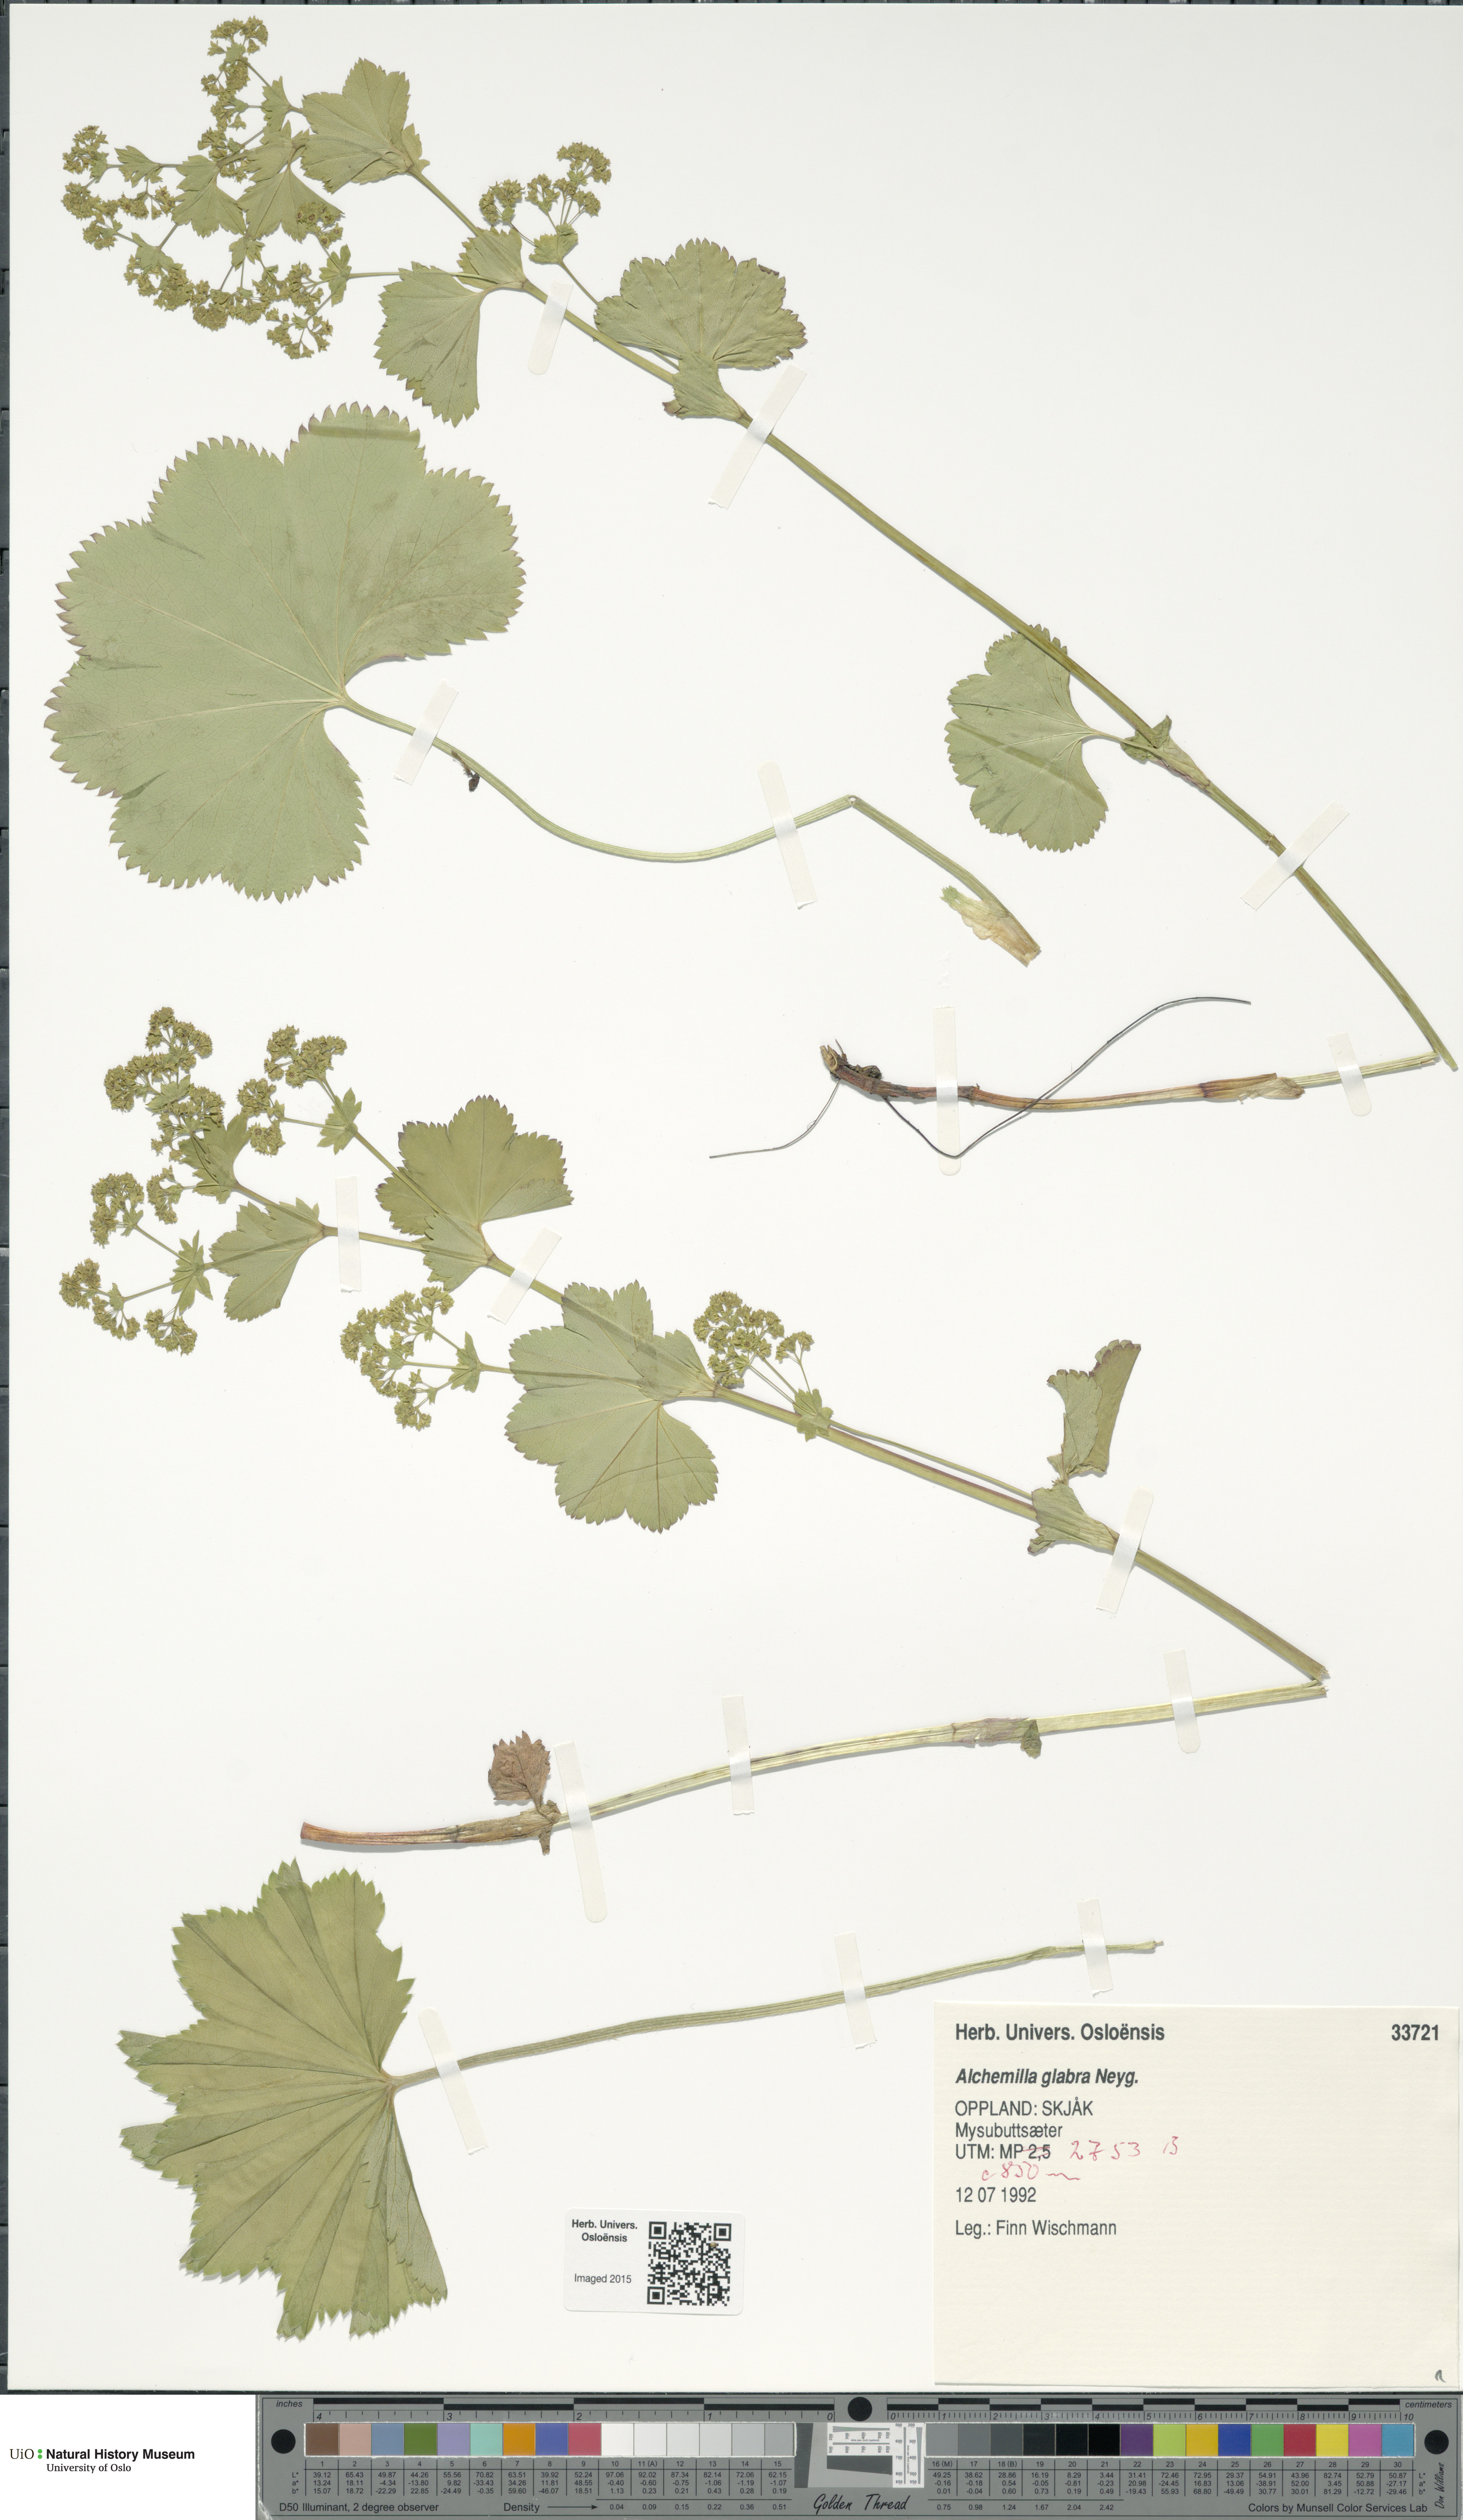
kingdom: Plantae
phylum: Tracheophyta
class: Magnoliopsida
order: Rosales
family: Rosaceae
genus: Alchemilla
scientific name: Alchemilla glabra
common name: Smooth lady's-mantle
